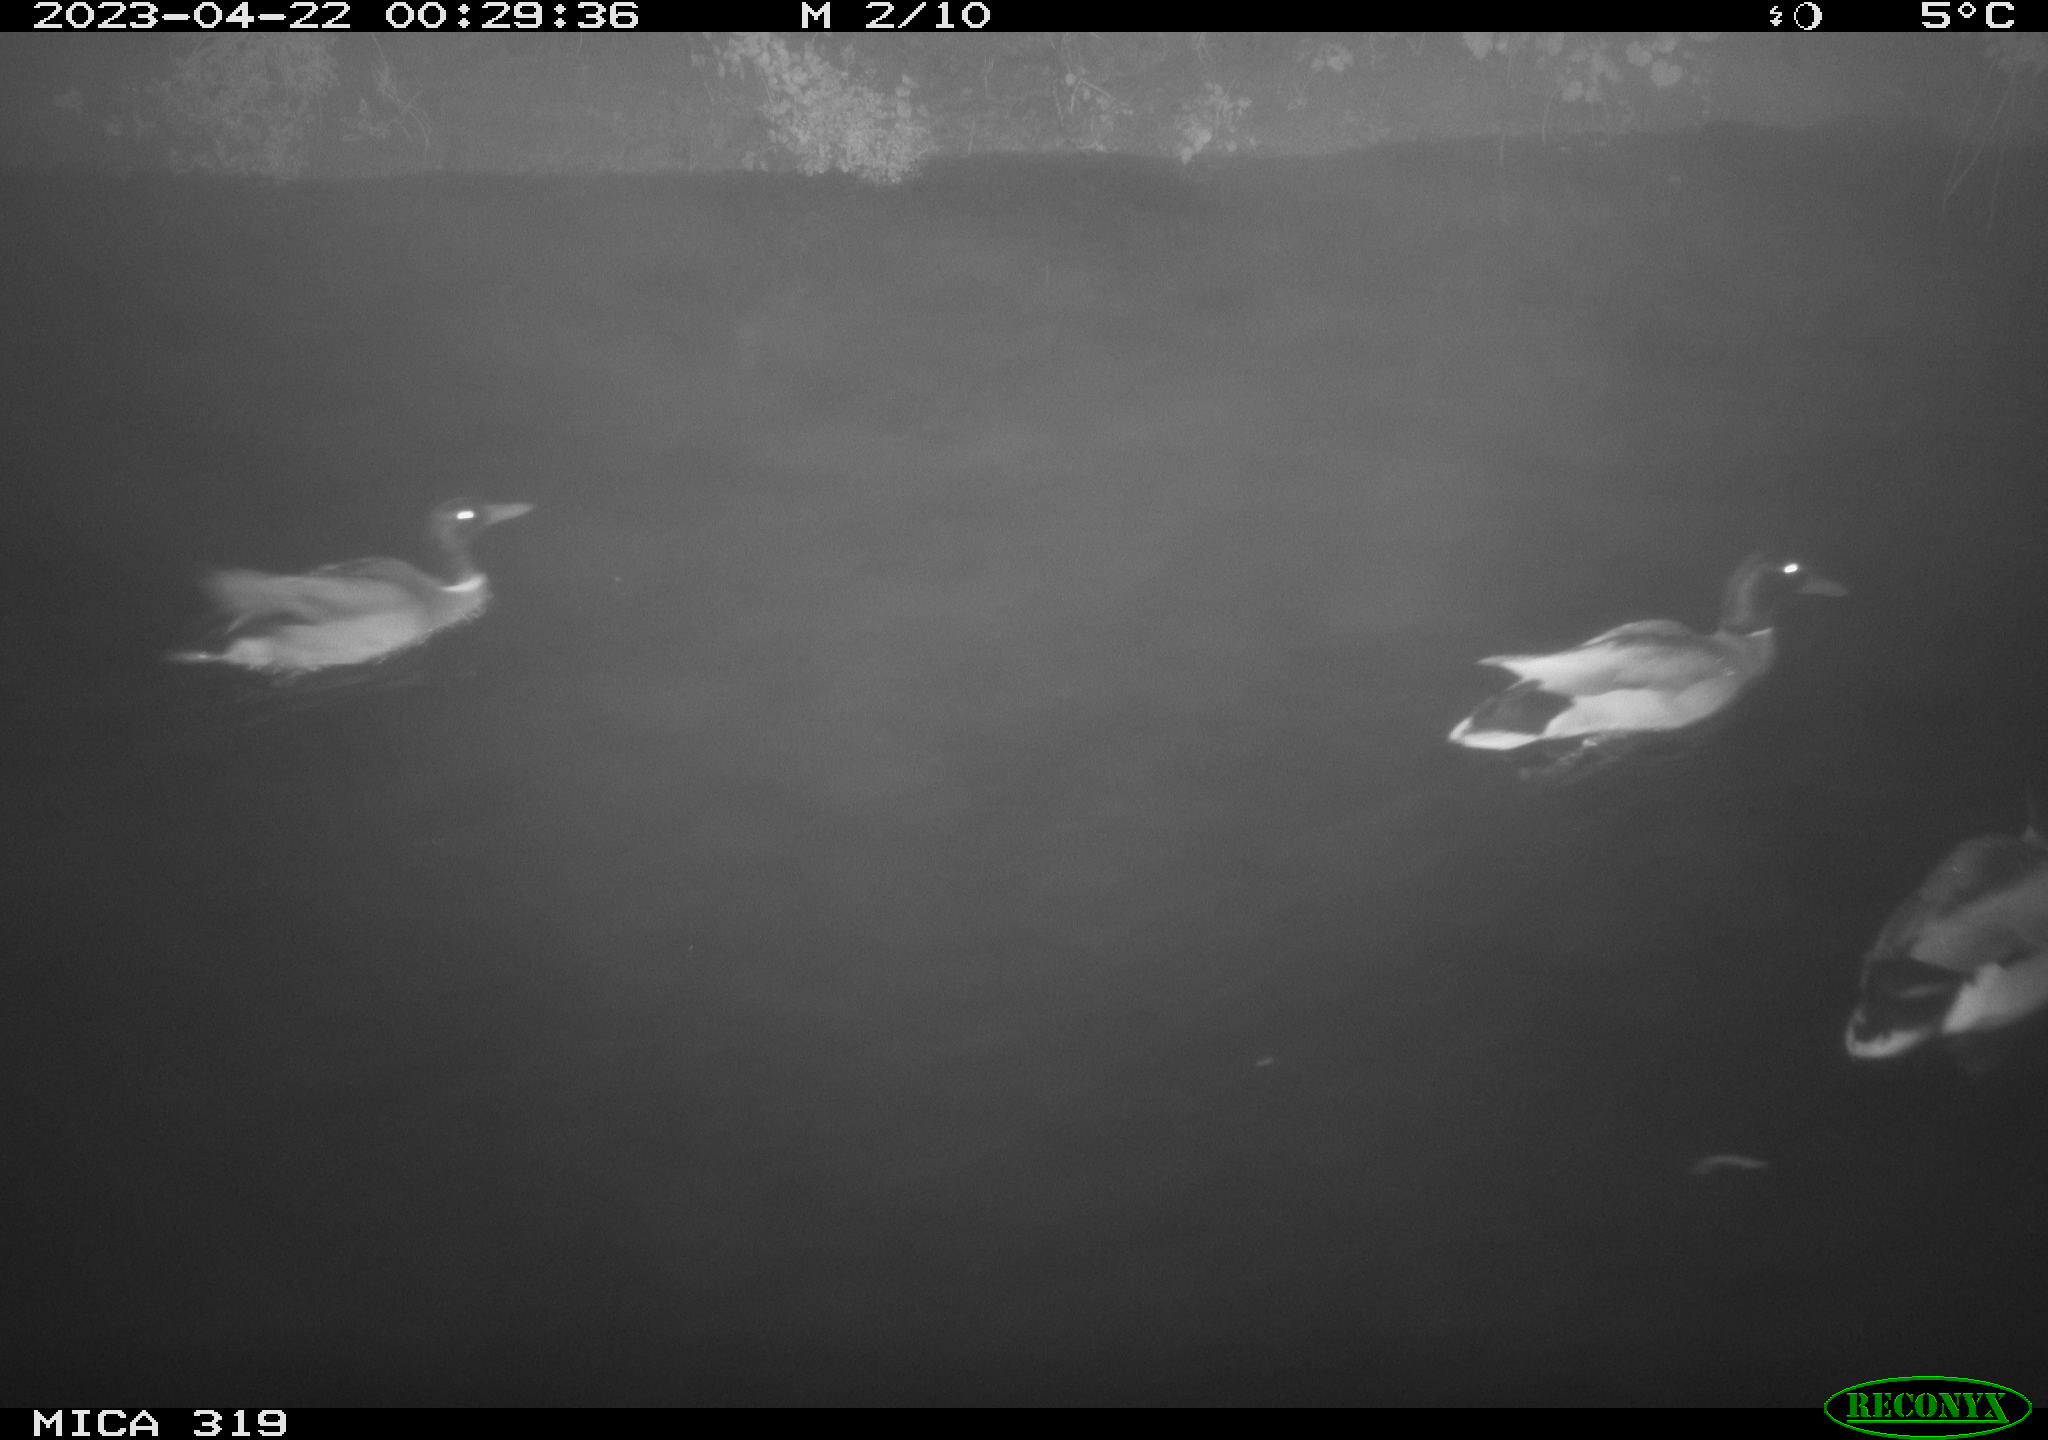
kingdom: Animalia
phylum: Chordata
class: Aves
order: Anseriformes
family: Anatidae
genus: Anas
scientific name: Anas
